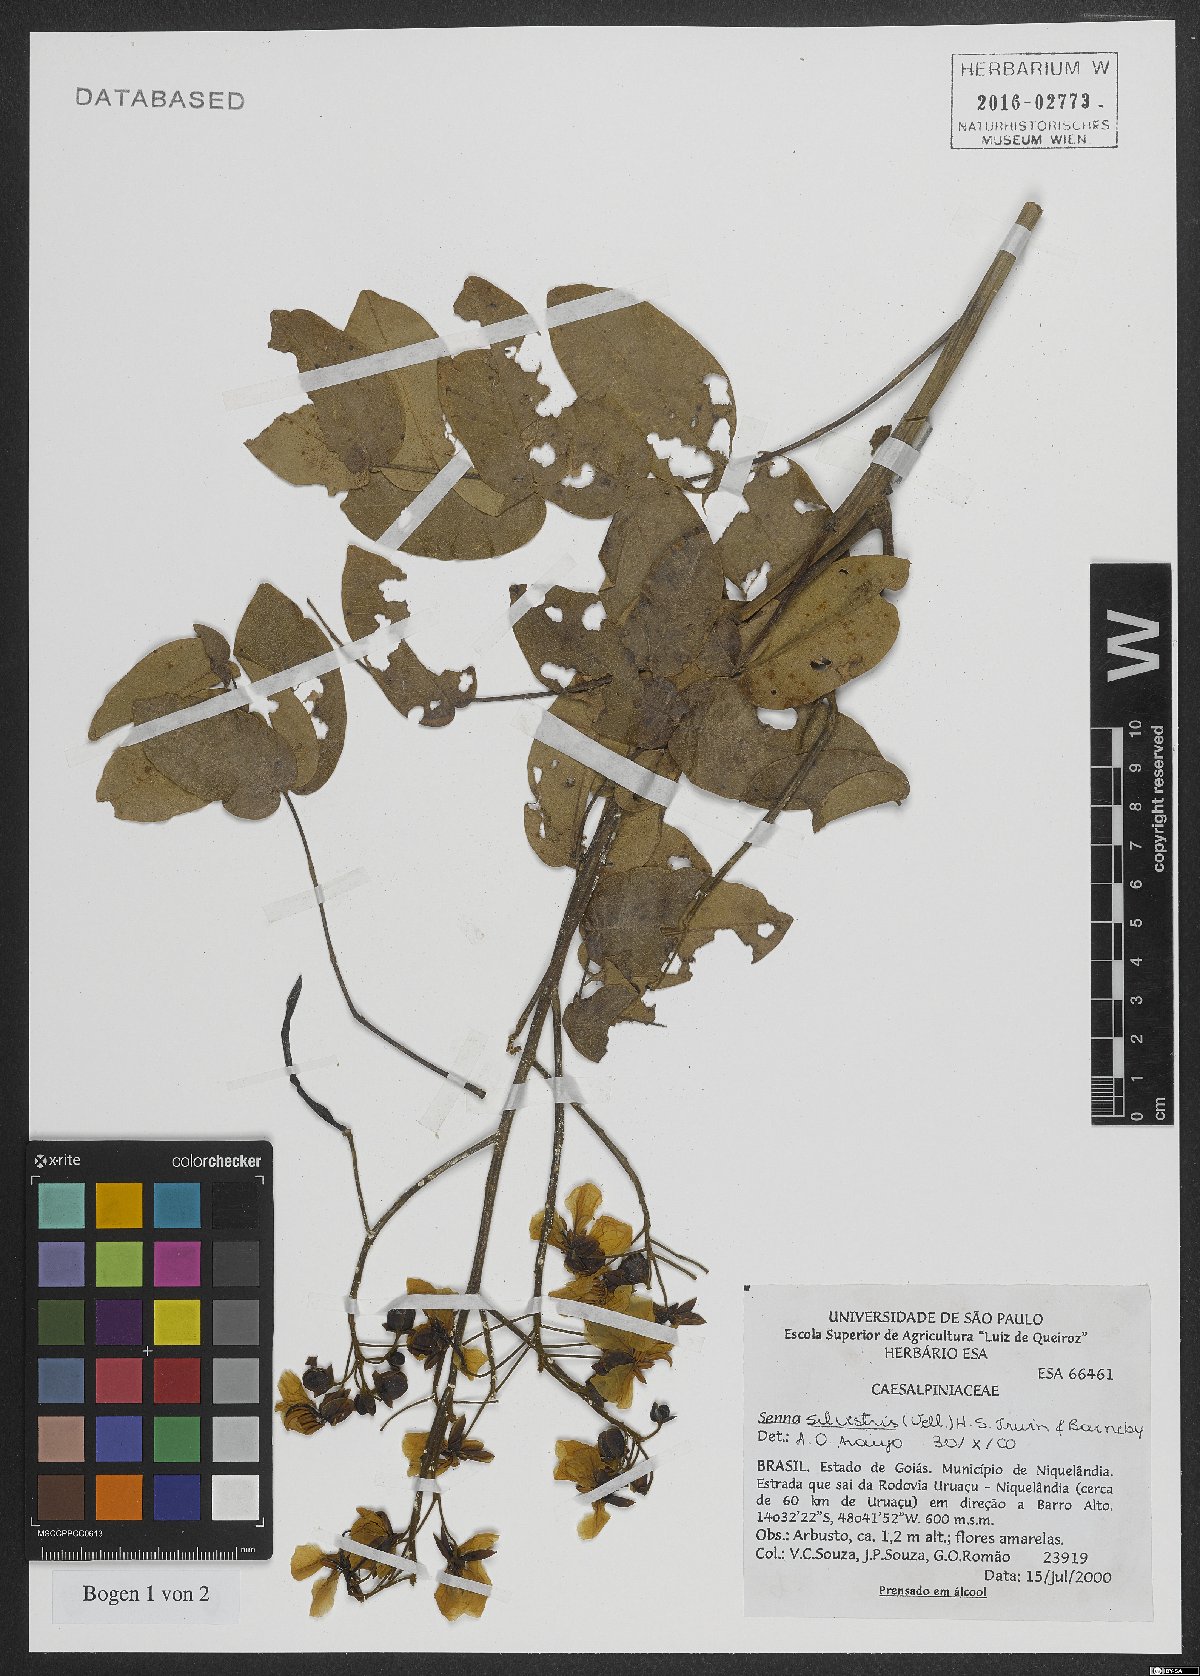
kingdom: Plantae
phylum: Tracheophyta
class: Magnoliopsida
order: Fabales
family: Fabaceae
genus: Senna
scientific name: Senna silvestris
